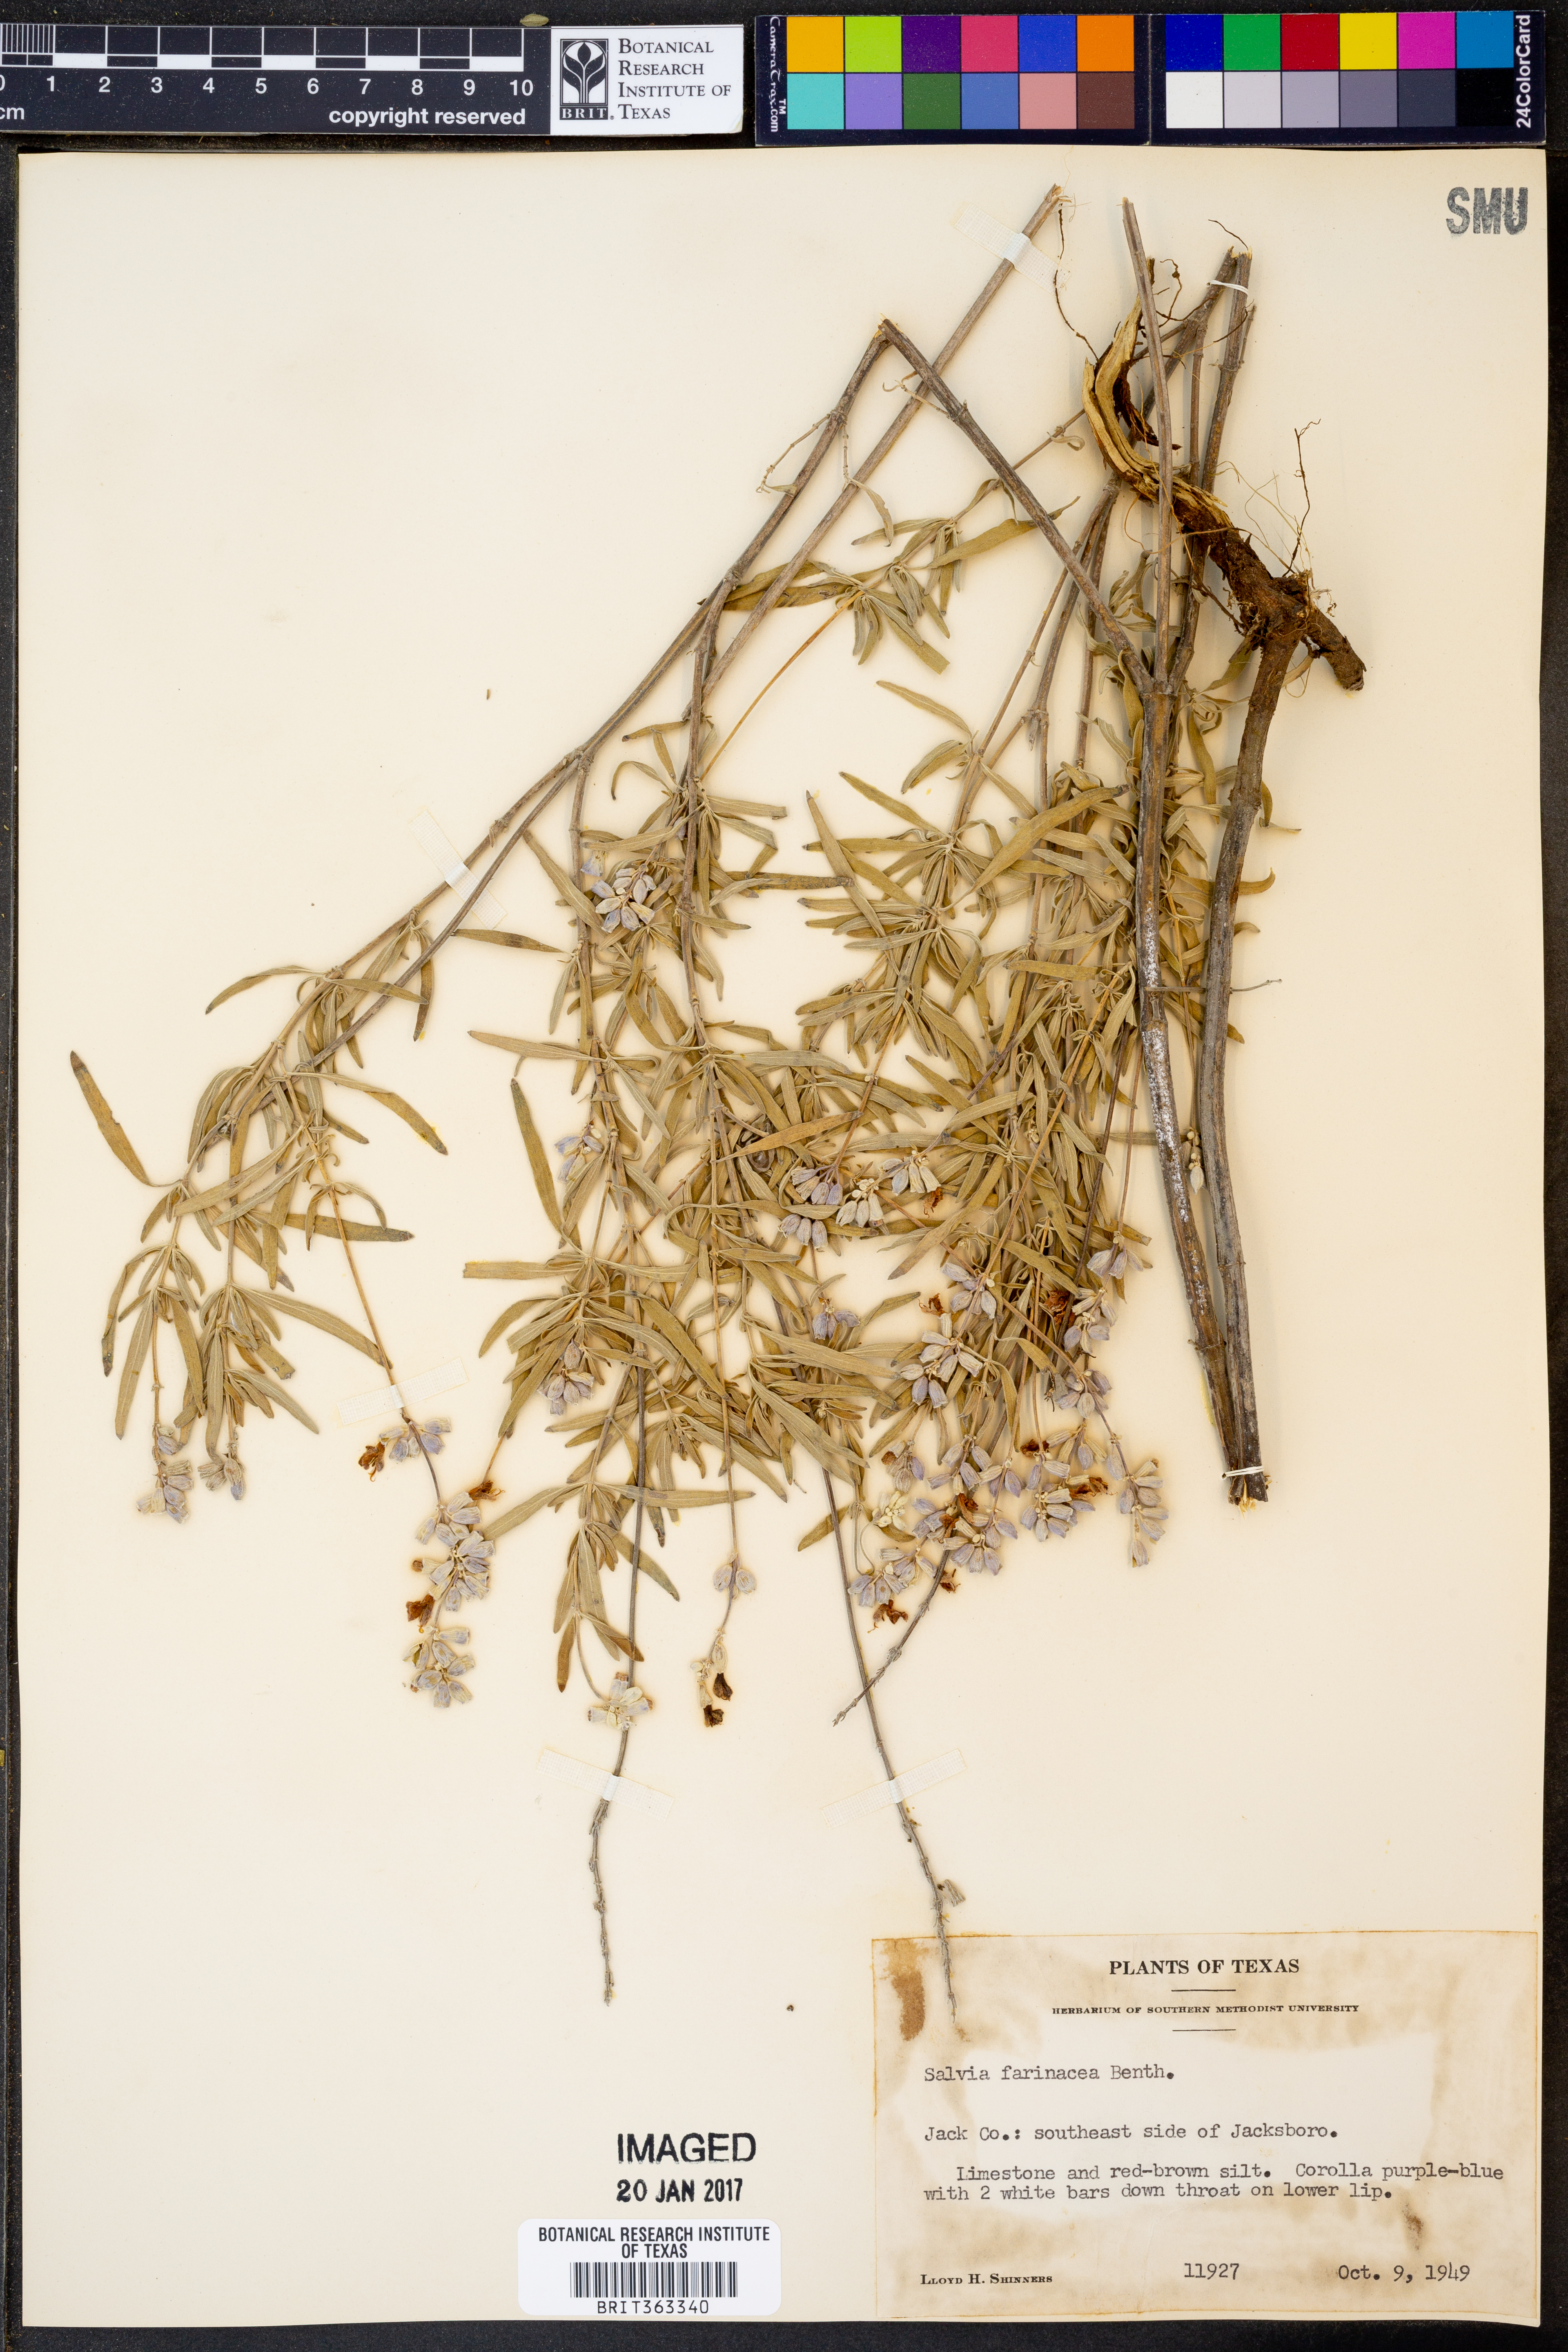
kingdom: Plantae
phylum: Tracheophyta
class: Magnoliopsida
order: Lamiales
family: Lamiaceae
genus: Salvia
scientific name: Salvia farinacea
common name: Mealy sage
